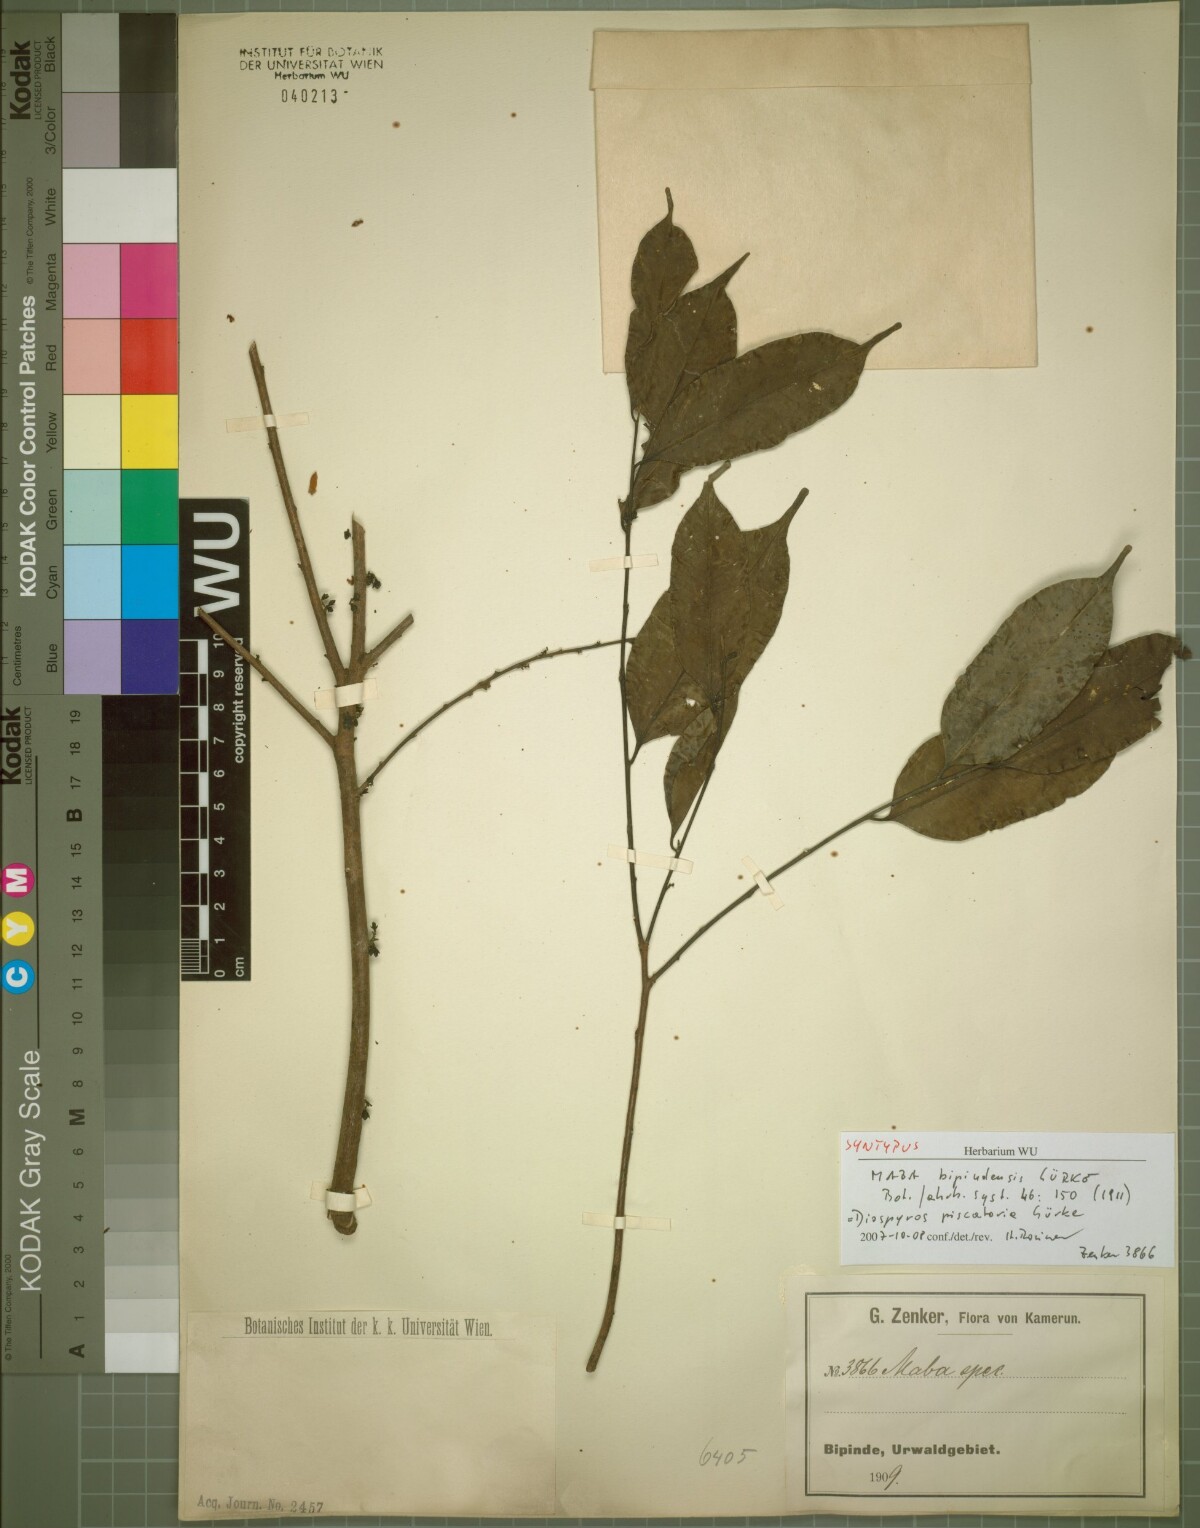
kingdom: Plantae
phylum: Tracheophyta
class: Magnoliopsida
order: Ericales
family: Ebenaceae
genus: Diospyros
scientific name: Diospyros piscatoria
